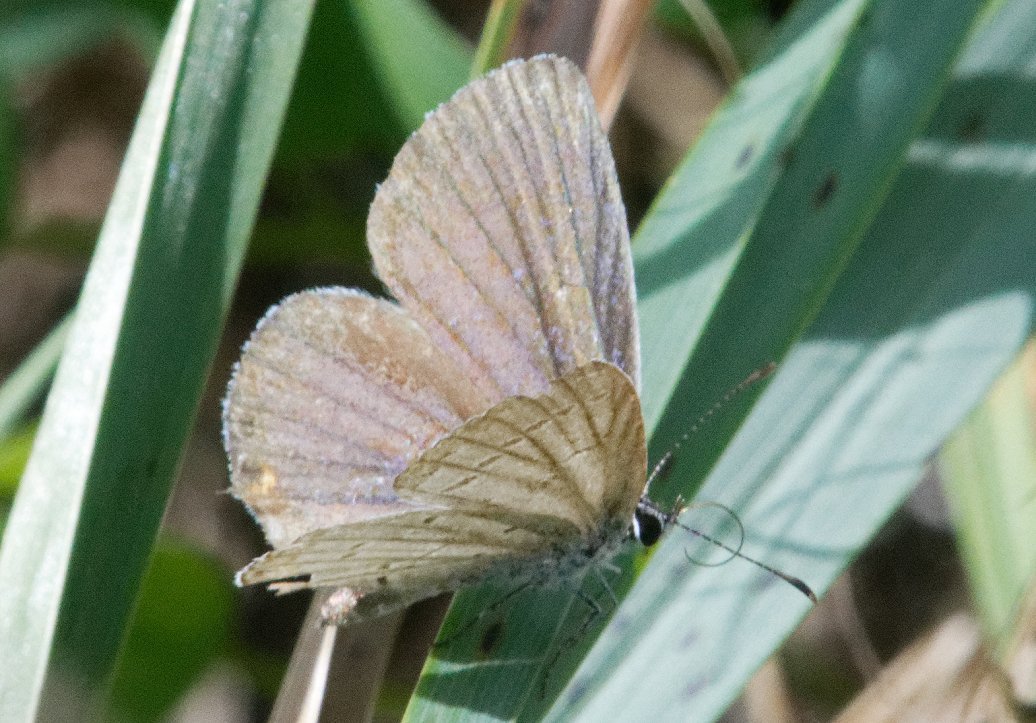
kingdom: Animalia
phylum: Arthropoda
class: Insecta
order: Lepidoptera
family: Lycaenidae
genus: Elkalyce
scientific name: Elkalyce comyntas
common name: Eastern Tailed-Blue
